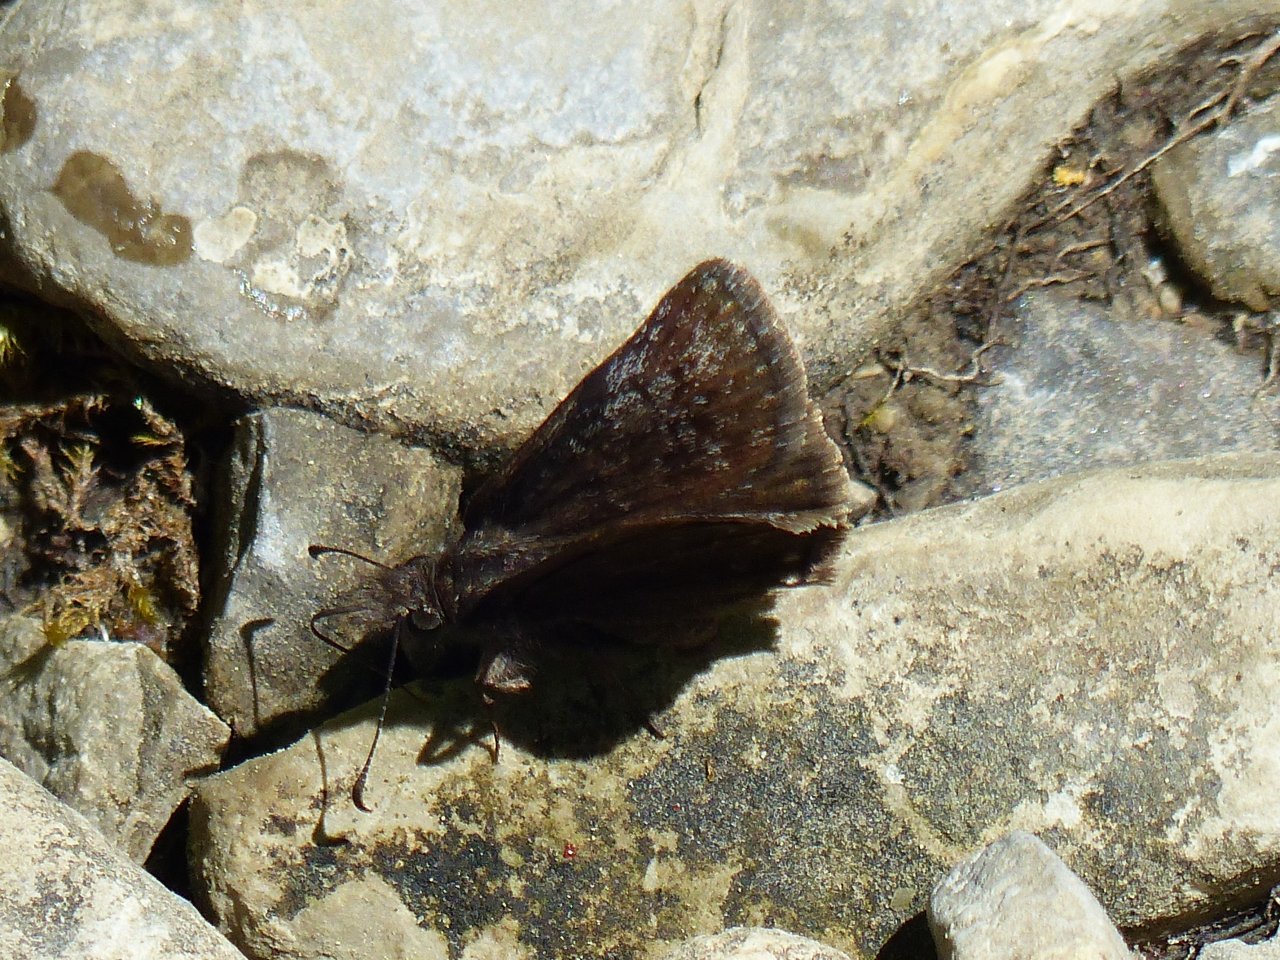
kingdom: Animalia
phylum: Arthropoda
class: Insecta
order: Lepidoptera
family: Hesperiidae
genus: Erynnis
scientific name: Erynnis icelus
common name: Dreamy Duskywing
